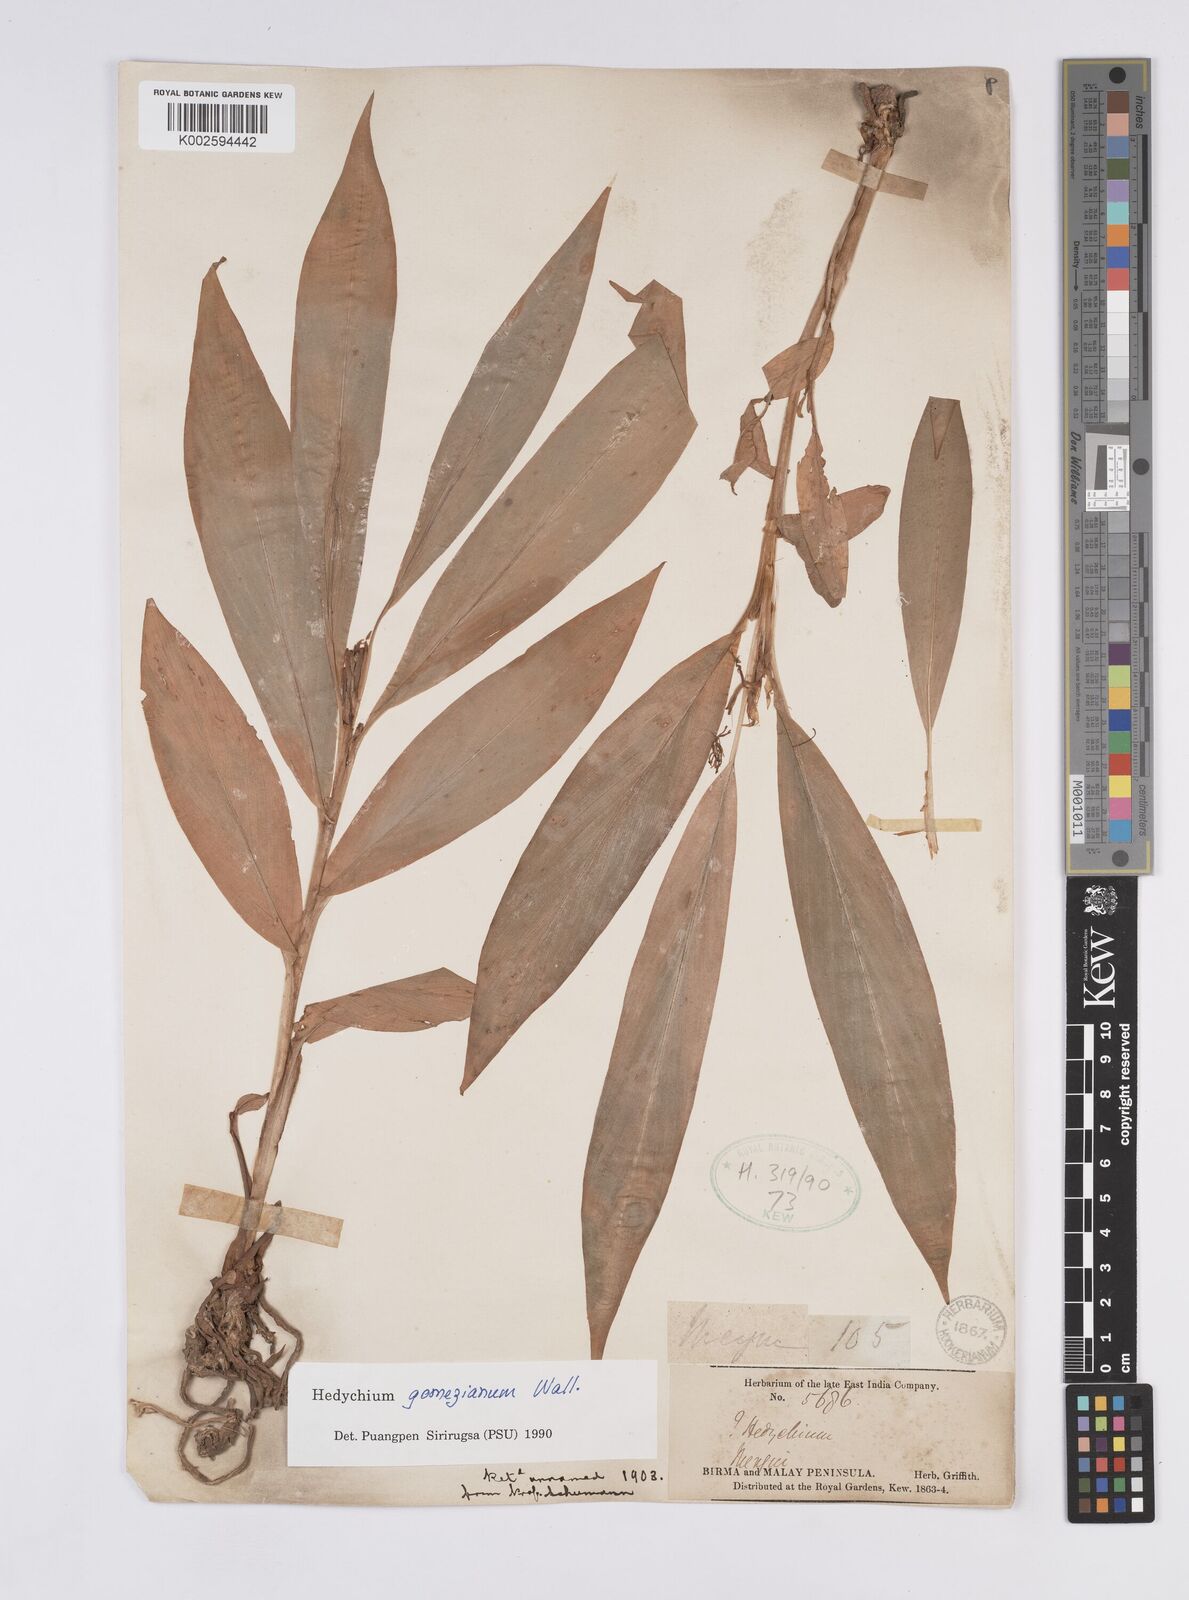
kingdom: Plantae
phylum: Tracheophyta
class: Liliopsida
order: Zingiberales
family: Zingiberaceae
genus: Hedychium
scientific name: Hedychium gomezianum
